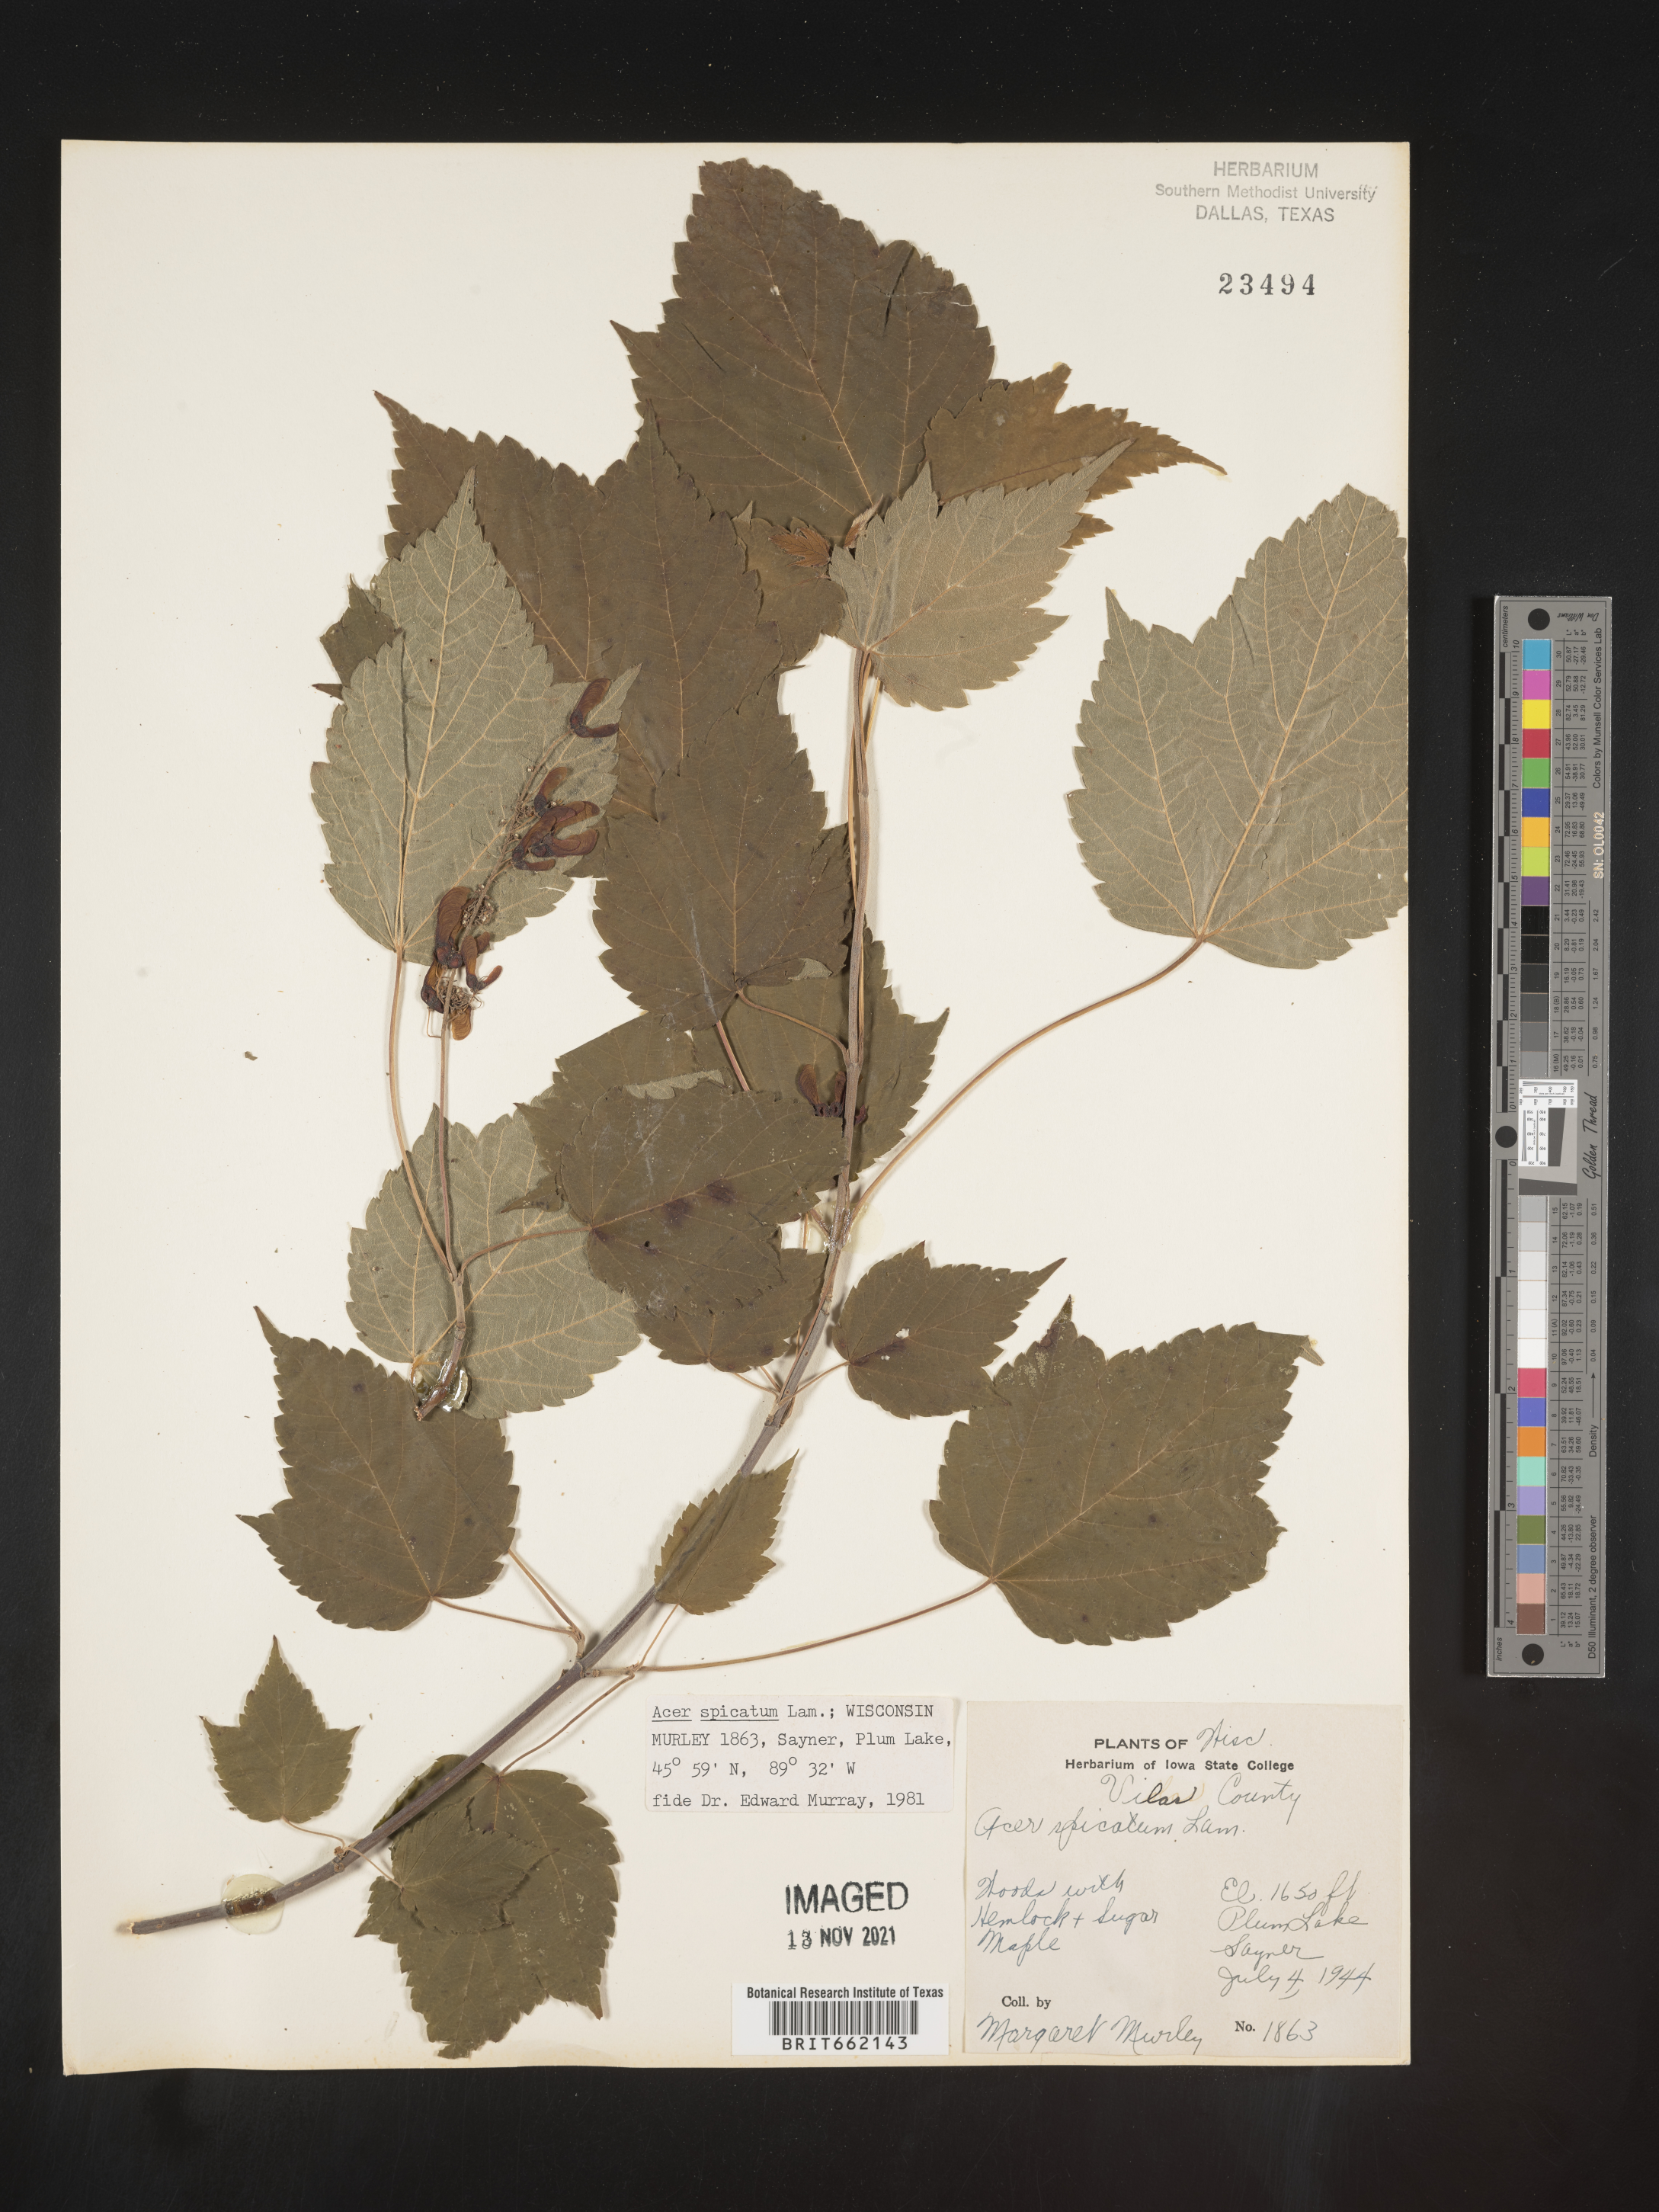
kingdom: Plantae
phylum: Tracheophyta
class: Magnoliopsida
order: Sapindales
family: Sapindaceae
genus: Acer
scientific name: Acer spicatum
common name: Mountain maple
